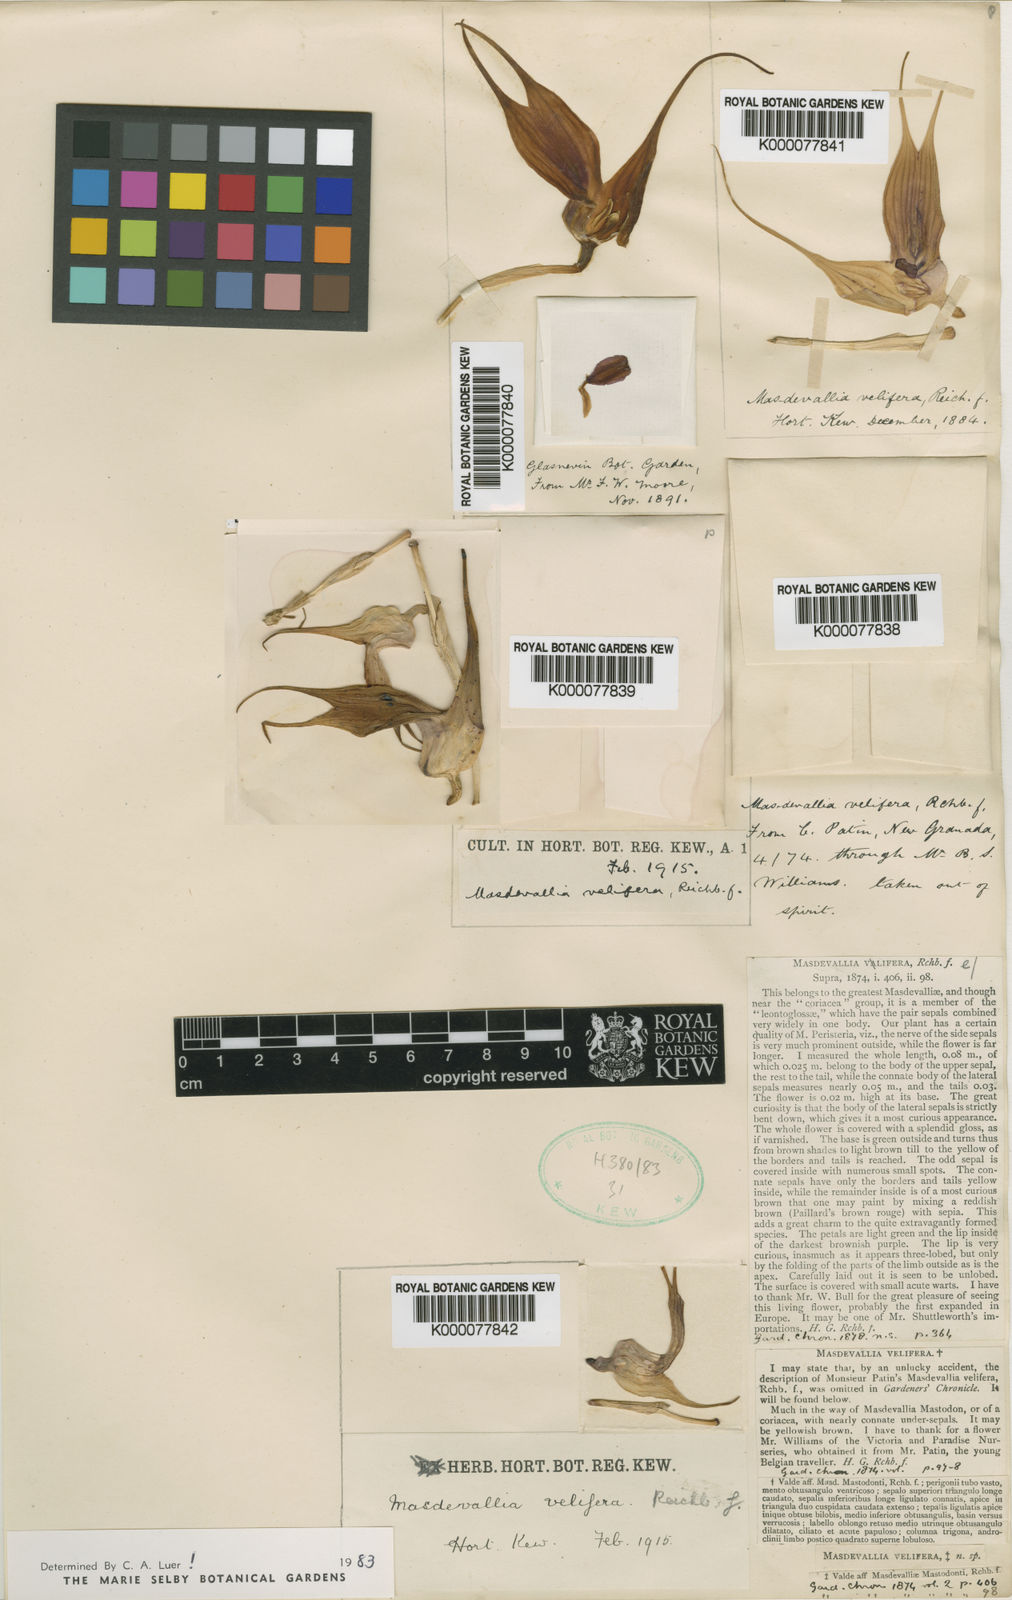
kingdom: Plantae
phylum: Tracheophyta
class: Liliopsida
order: Asparagales
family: Orchidaceae
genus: Masdevallia
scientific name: Masdevallia velifera
